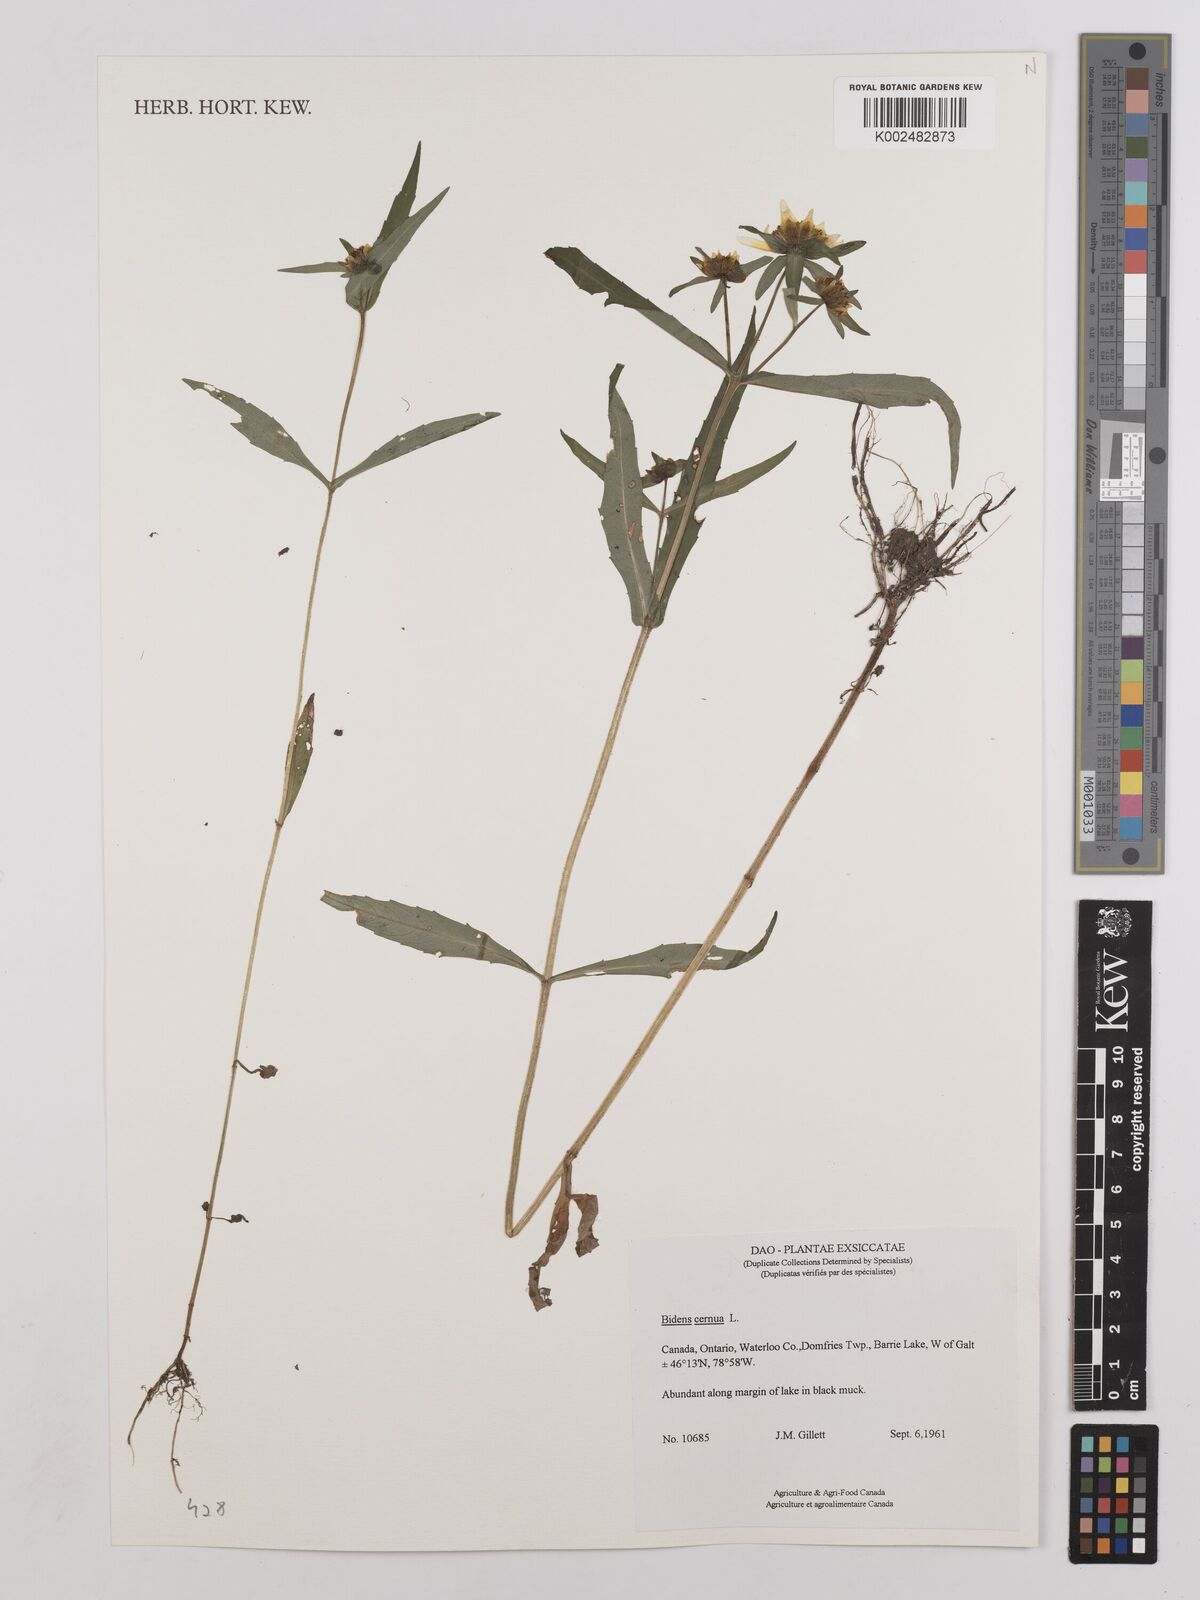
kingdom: Plantae
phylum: Tracheophyta
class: Magnoliopsida
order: Asterales
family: Asteraceae
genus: Bidens
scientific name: Bidens
